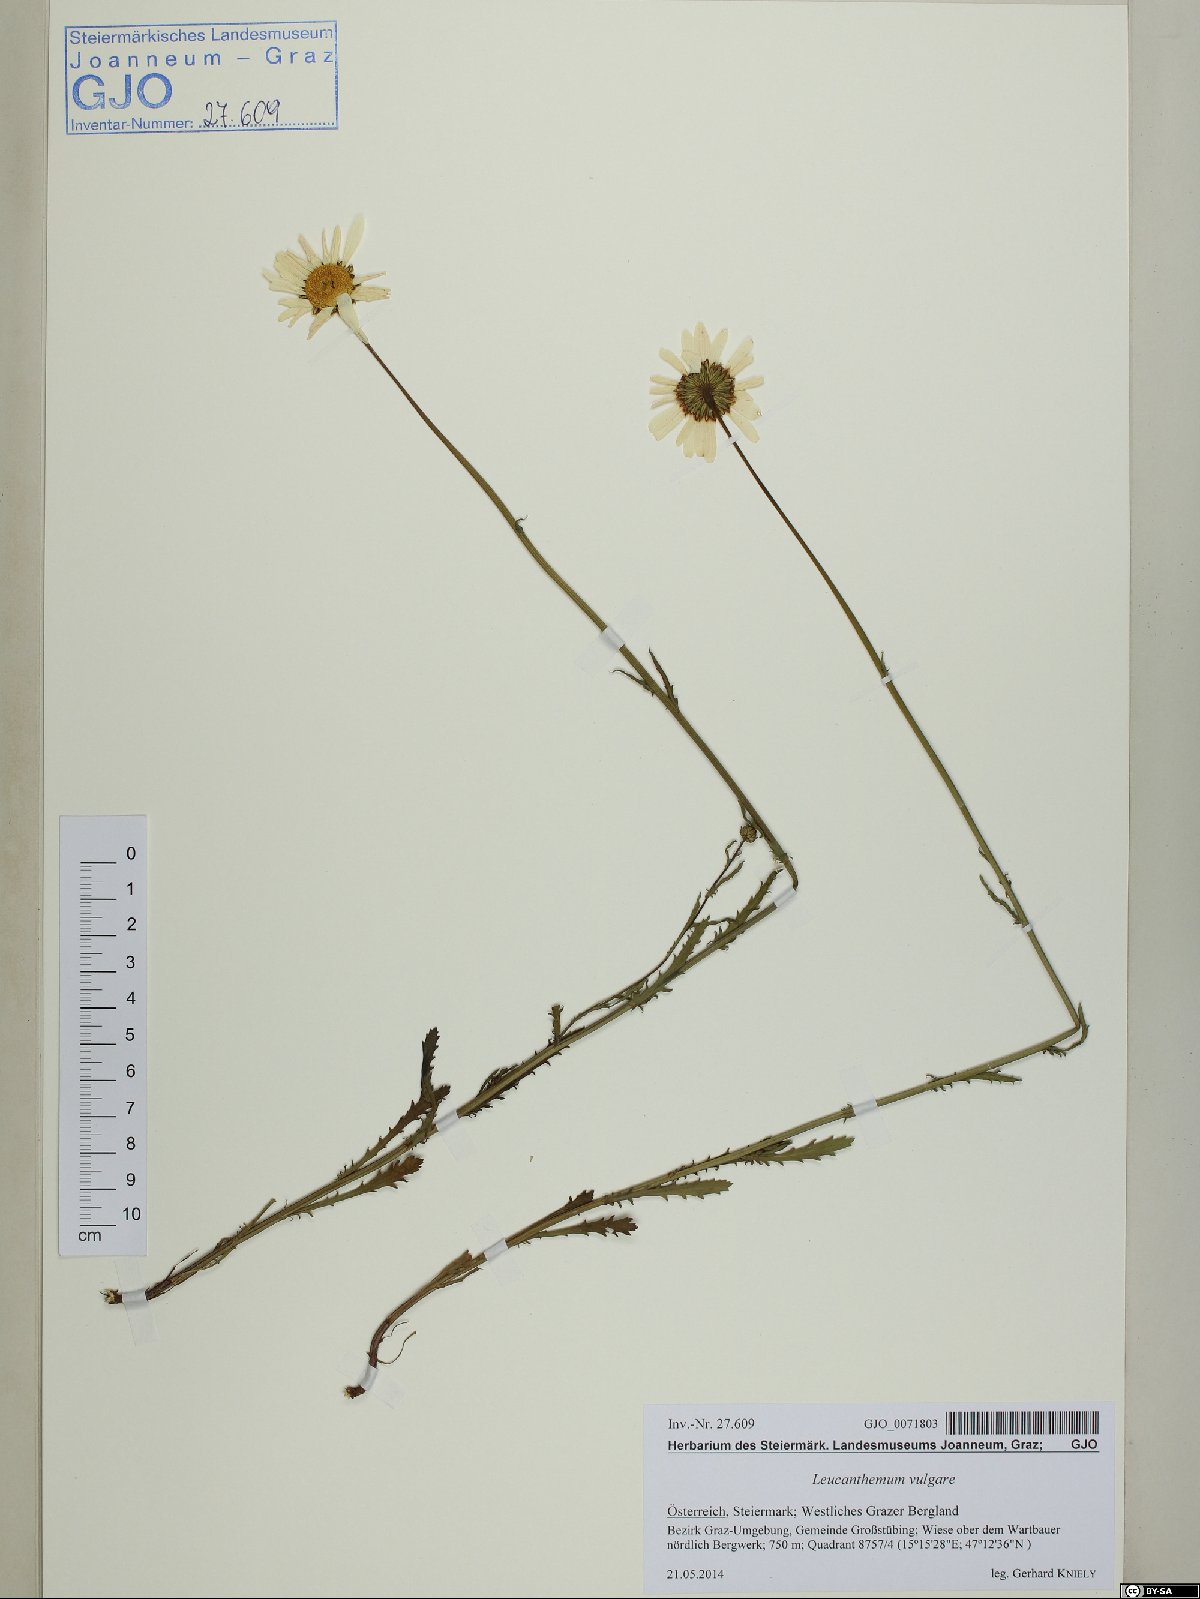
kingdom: Plantae
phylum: Tracheophyta
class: Magnoliopsida
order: Asterales
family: Asteraceae
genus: Leucanthemum
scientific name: Leucanthemum vulgare
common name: Oxeye daisy
